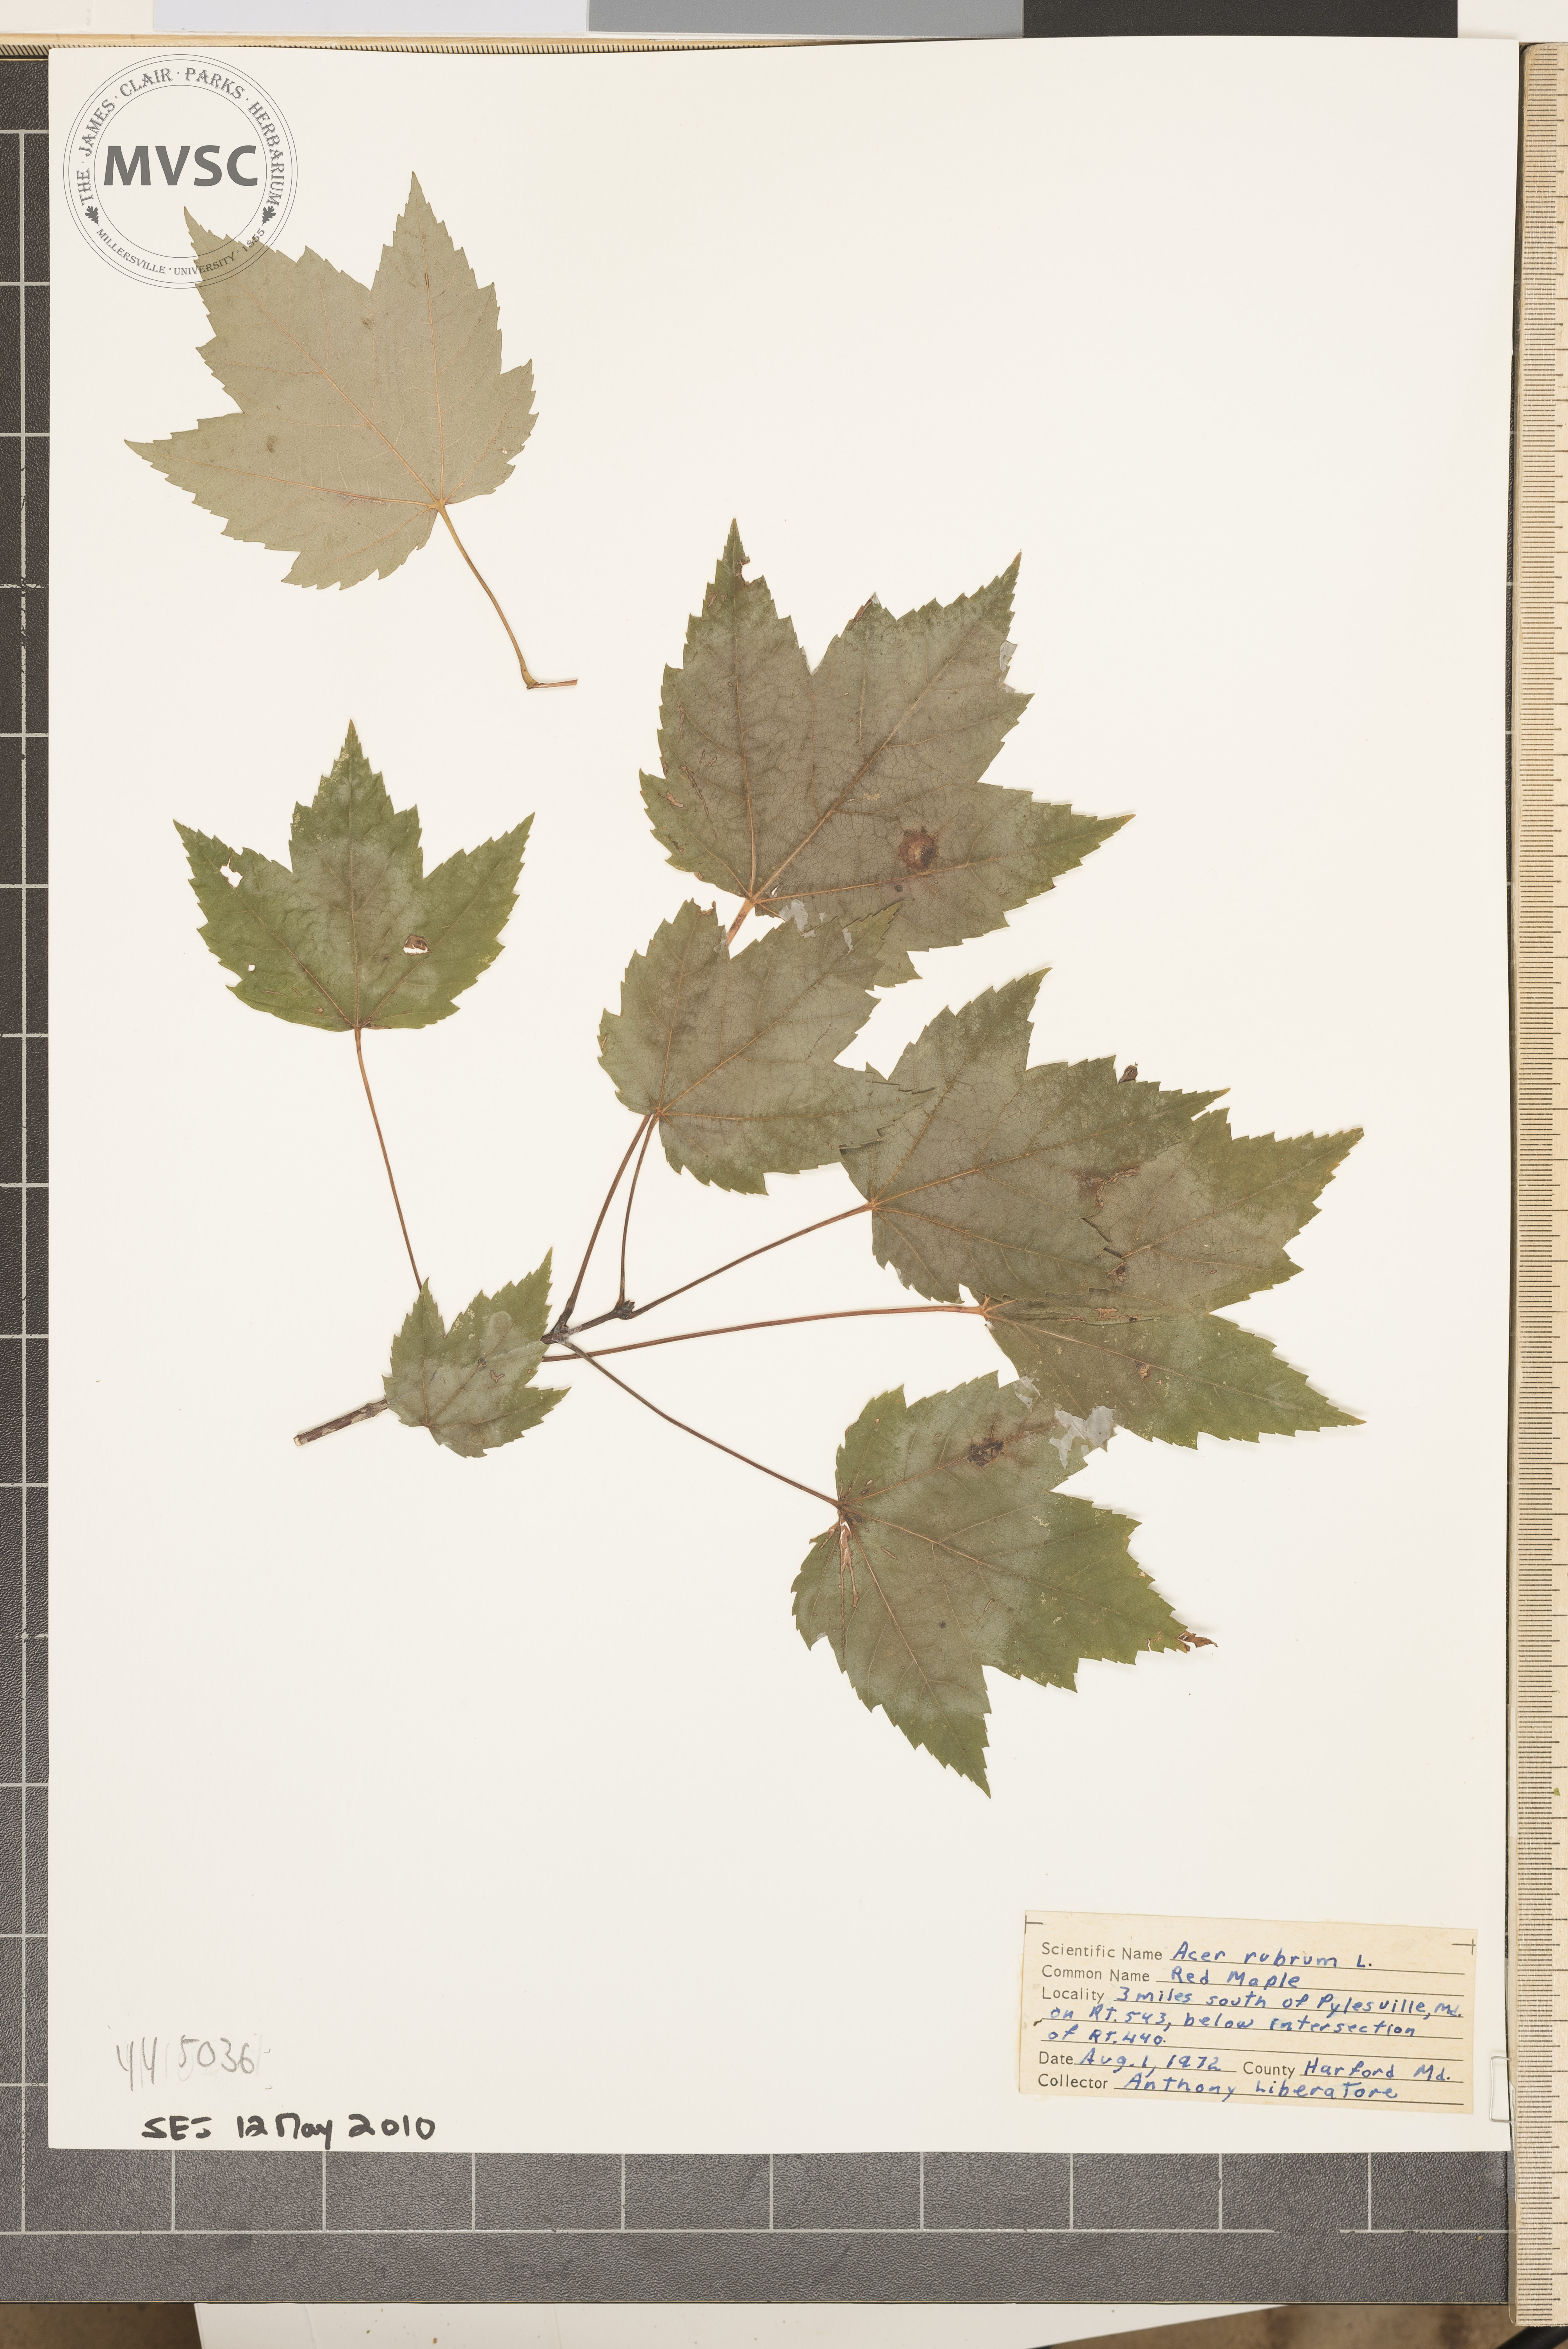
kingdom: Plantae
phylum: Tracheophyta
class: Magnoliopsida
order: Sapindales
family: Sapindaceae
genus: Acer
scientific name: Acer rubrum
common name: Red Maple
